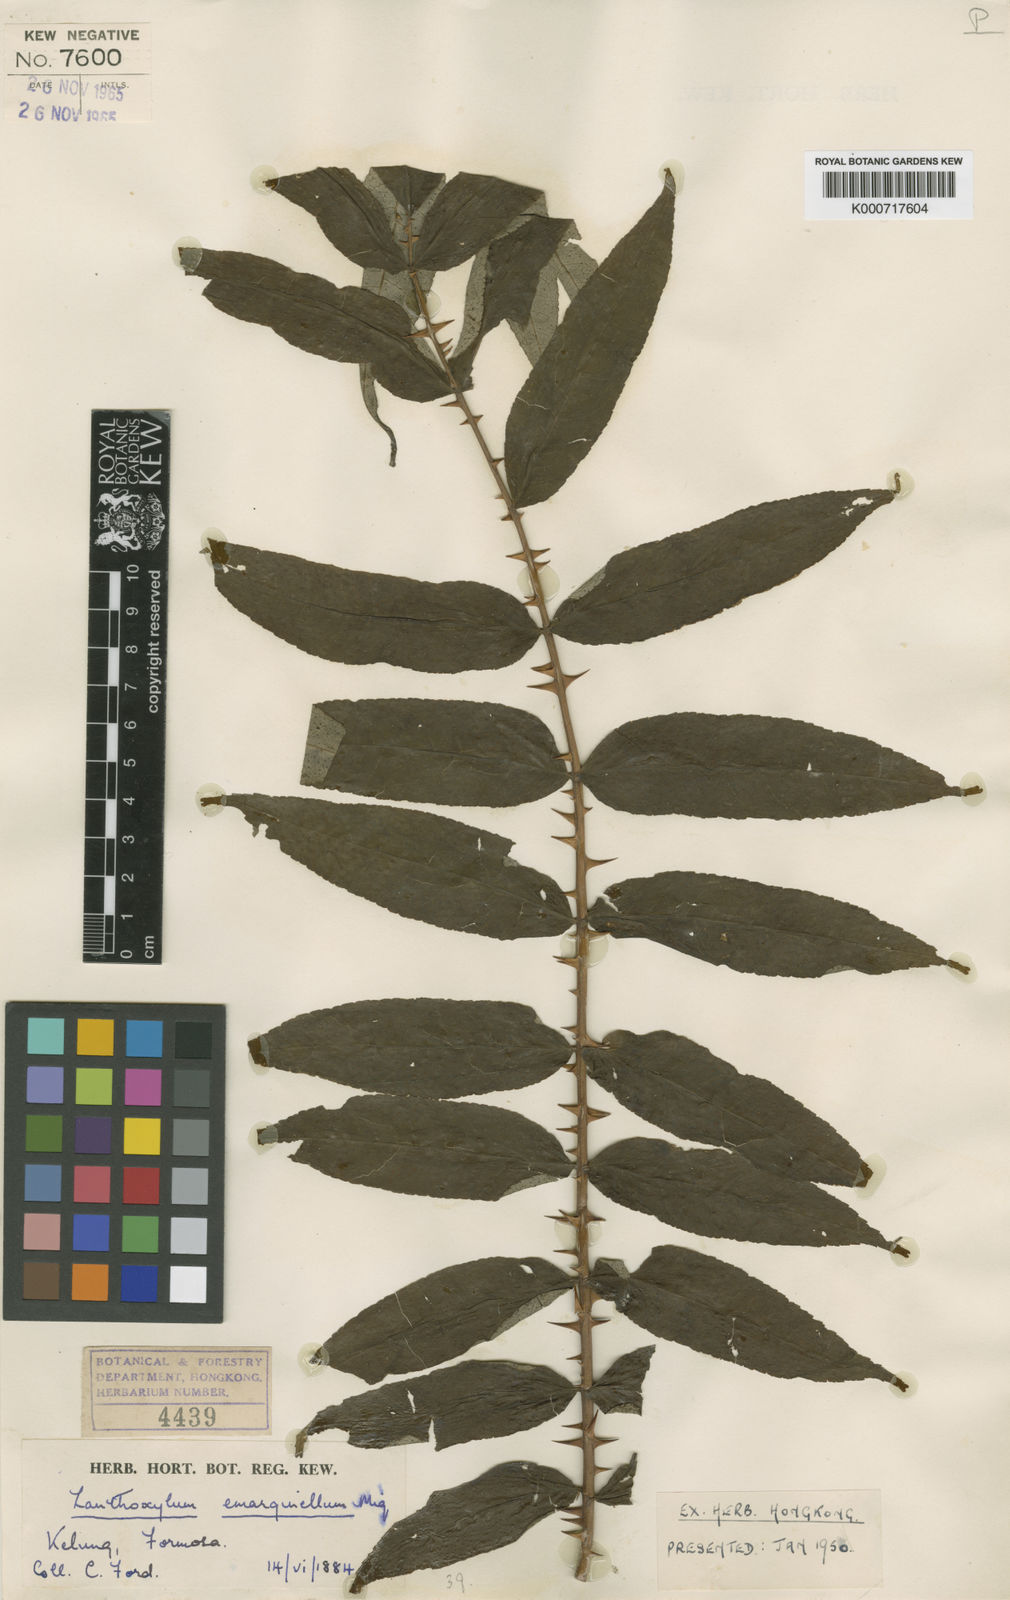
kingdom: Plantae
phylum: Tracheophyta
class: Magnoliopsida
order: Sapindales
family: Rutaceae
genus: Zanthoxylum
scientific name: Zanthoxylum ailanthoides
